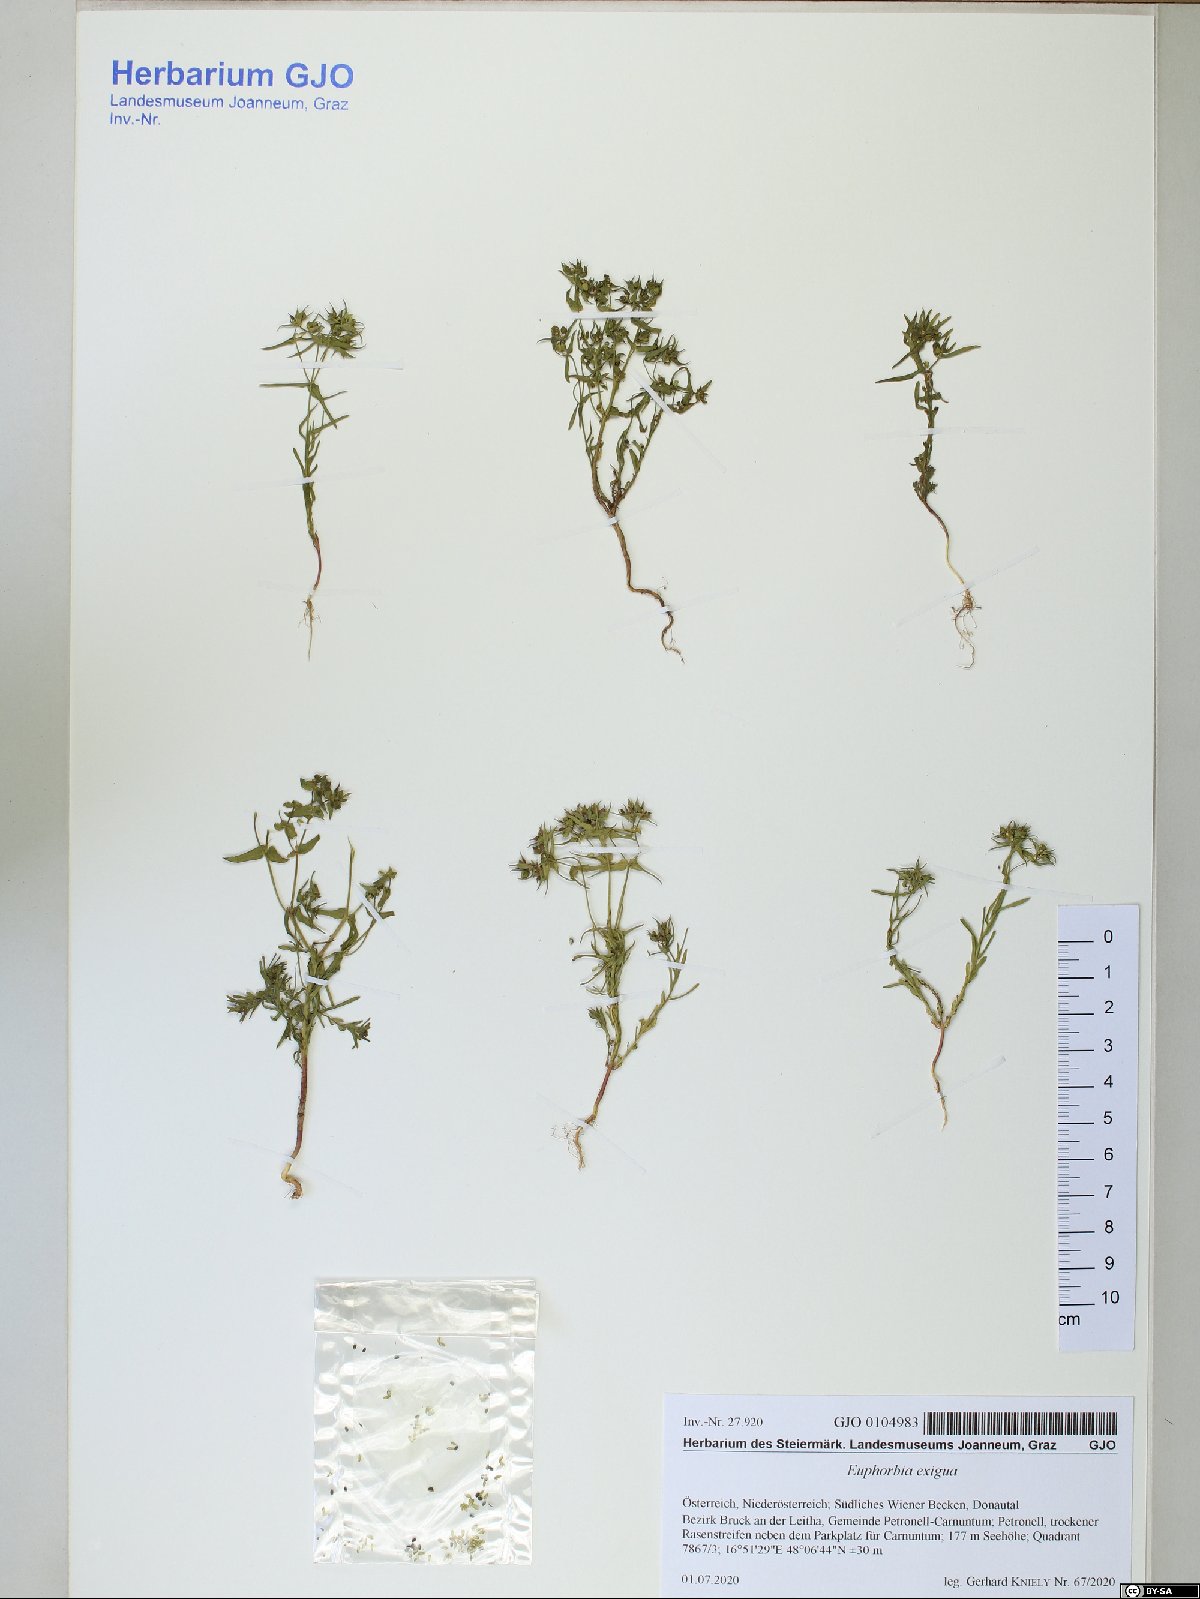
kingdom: Plantae
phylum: Tracheophyta
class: Magnoliopsida
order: Malpighiales
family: Euphorbiaceae
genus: Euphorbia
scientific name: Euphorbia exigua
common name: Dwarf spurge
